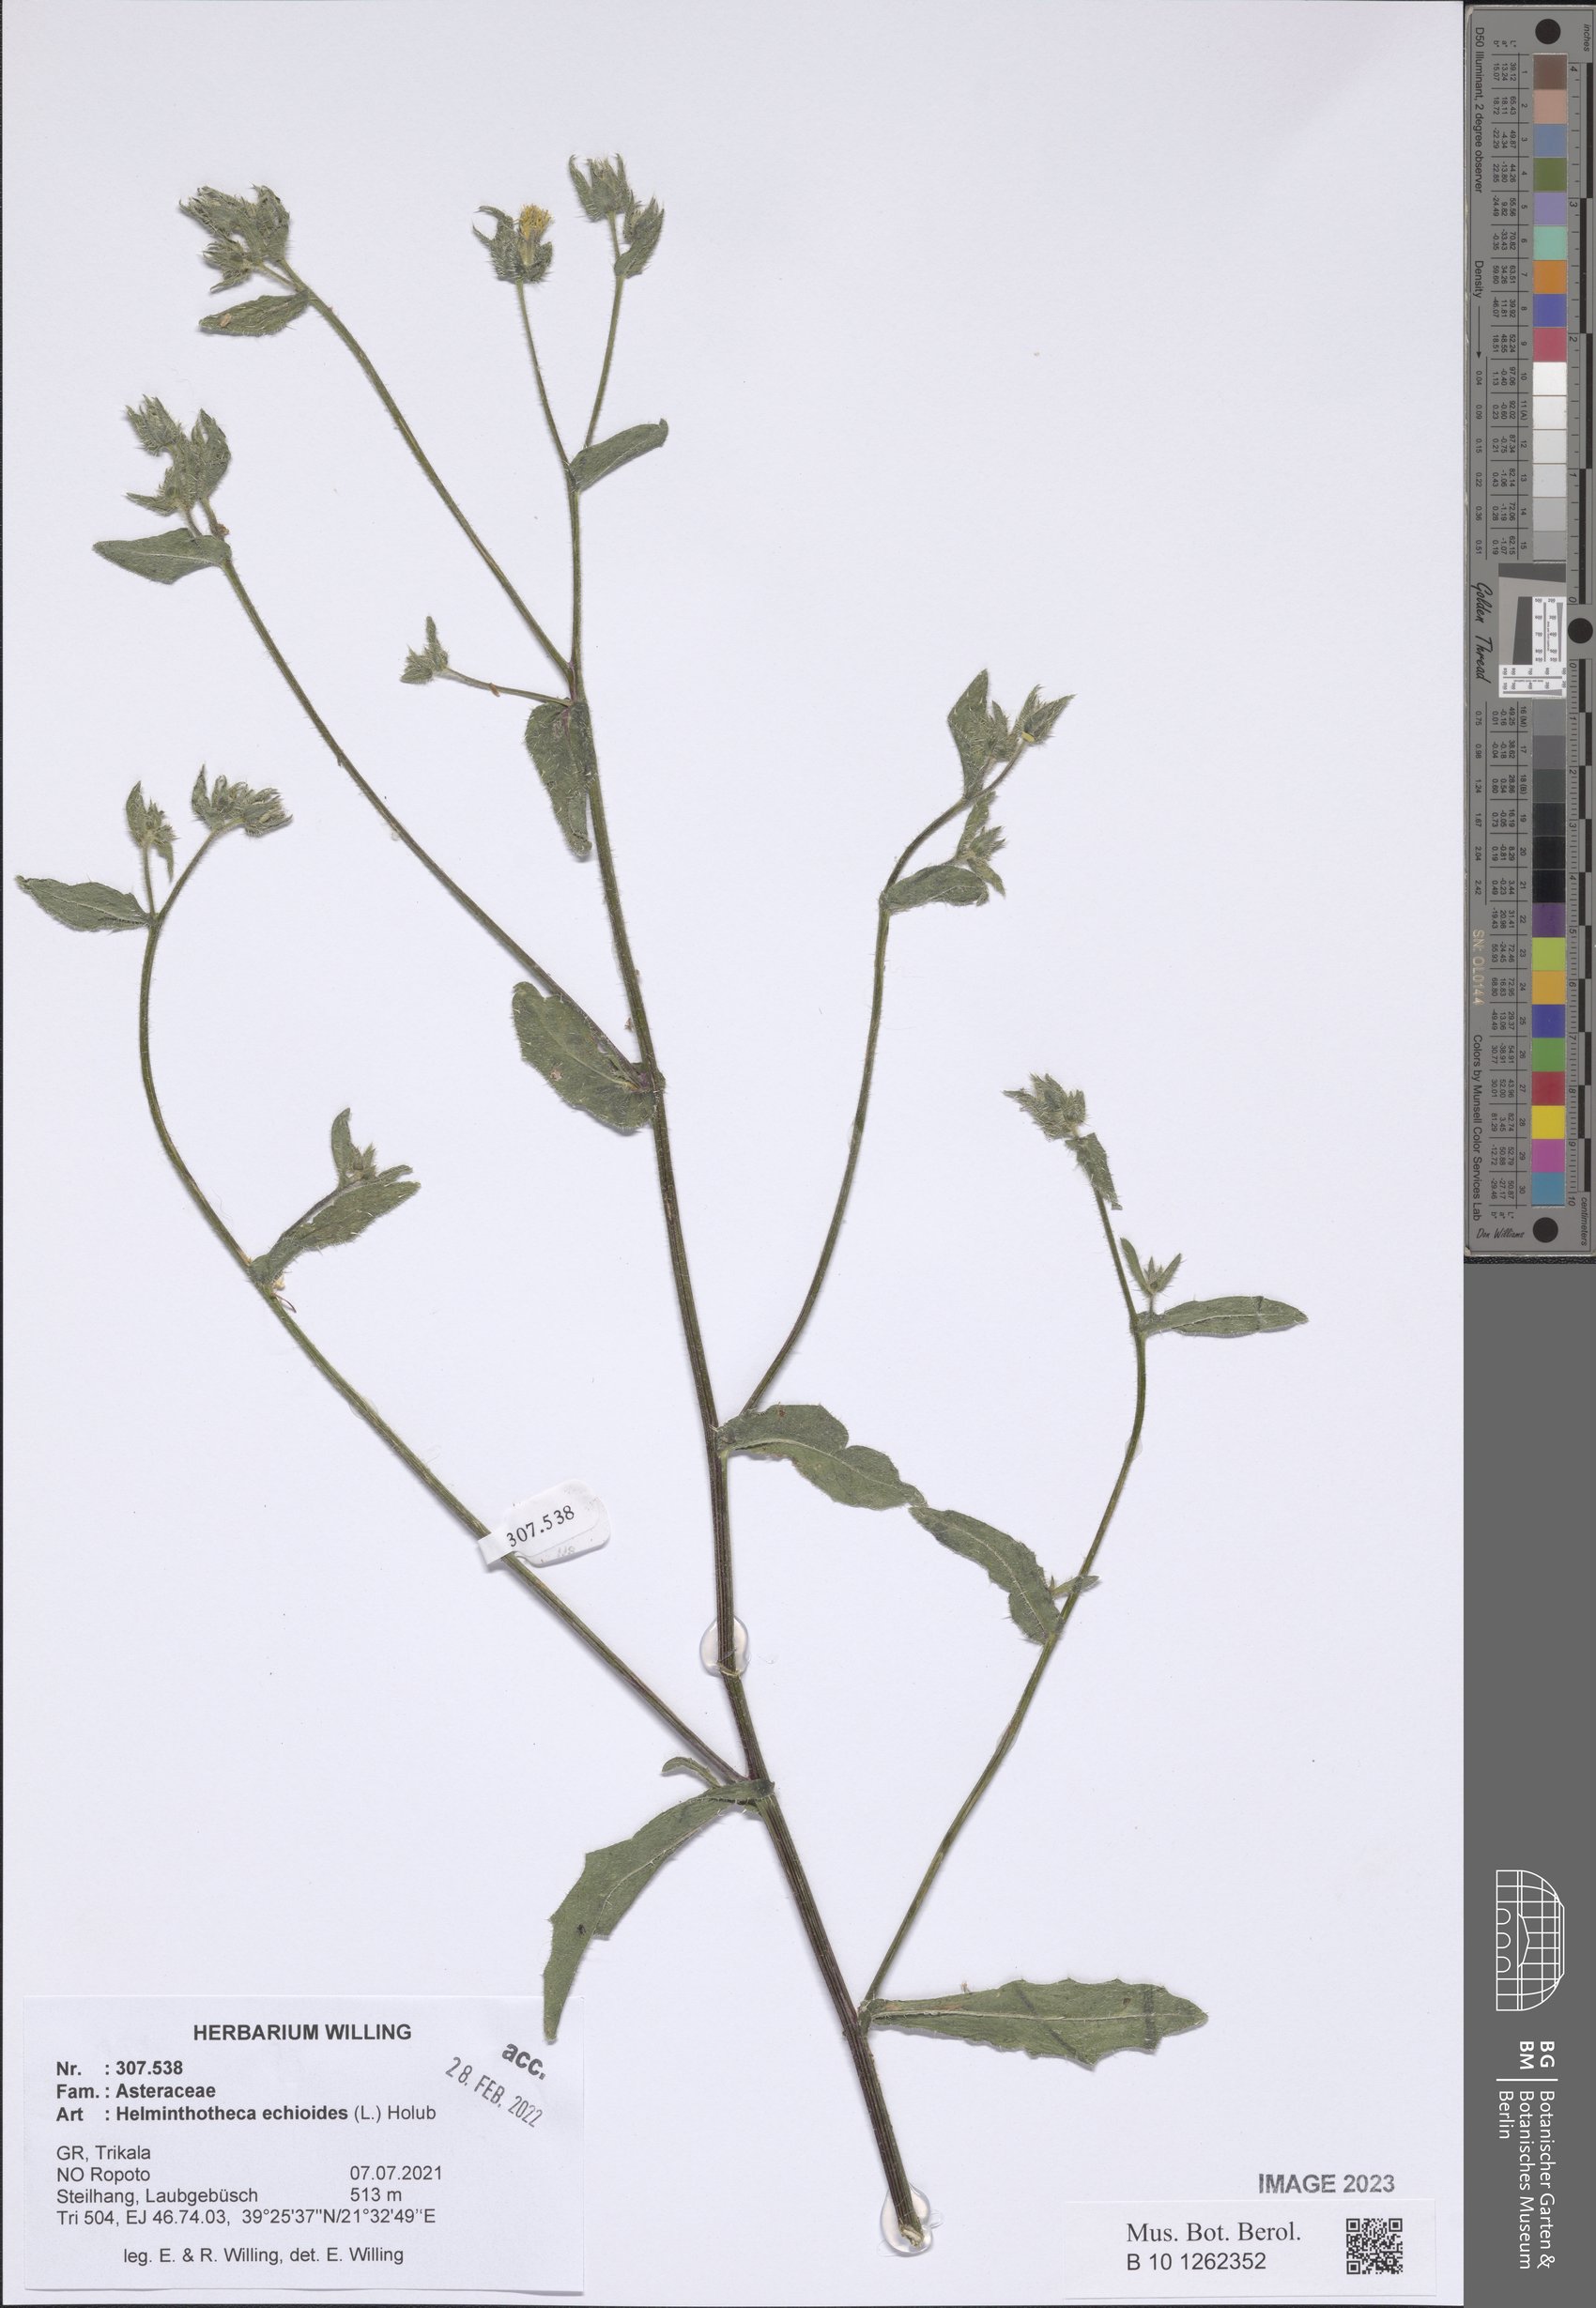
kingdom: Plantae
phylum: Tracheophyta
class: Magnoliopsida
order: Asterales
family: Asteraceae
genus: Helminthotheca
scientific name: Helminthotheca echioides
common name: Ox-tongue
